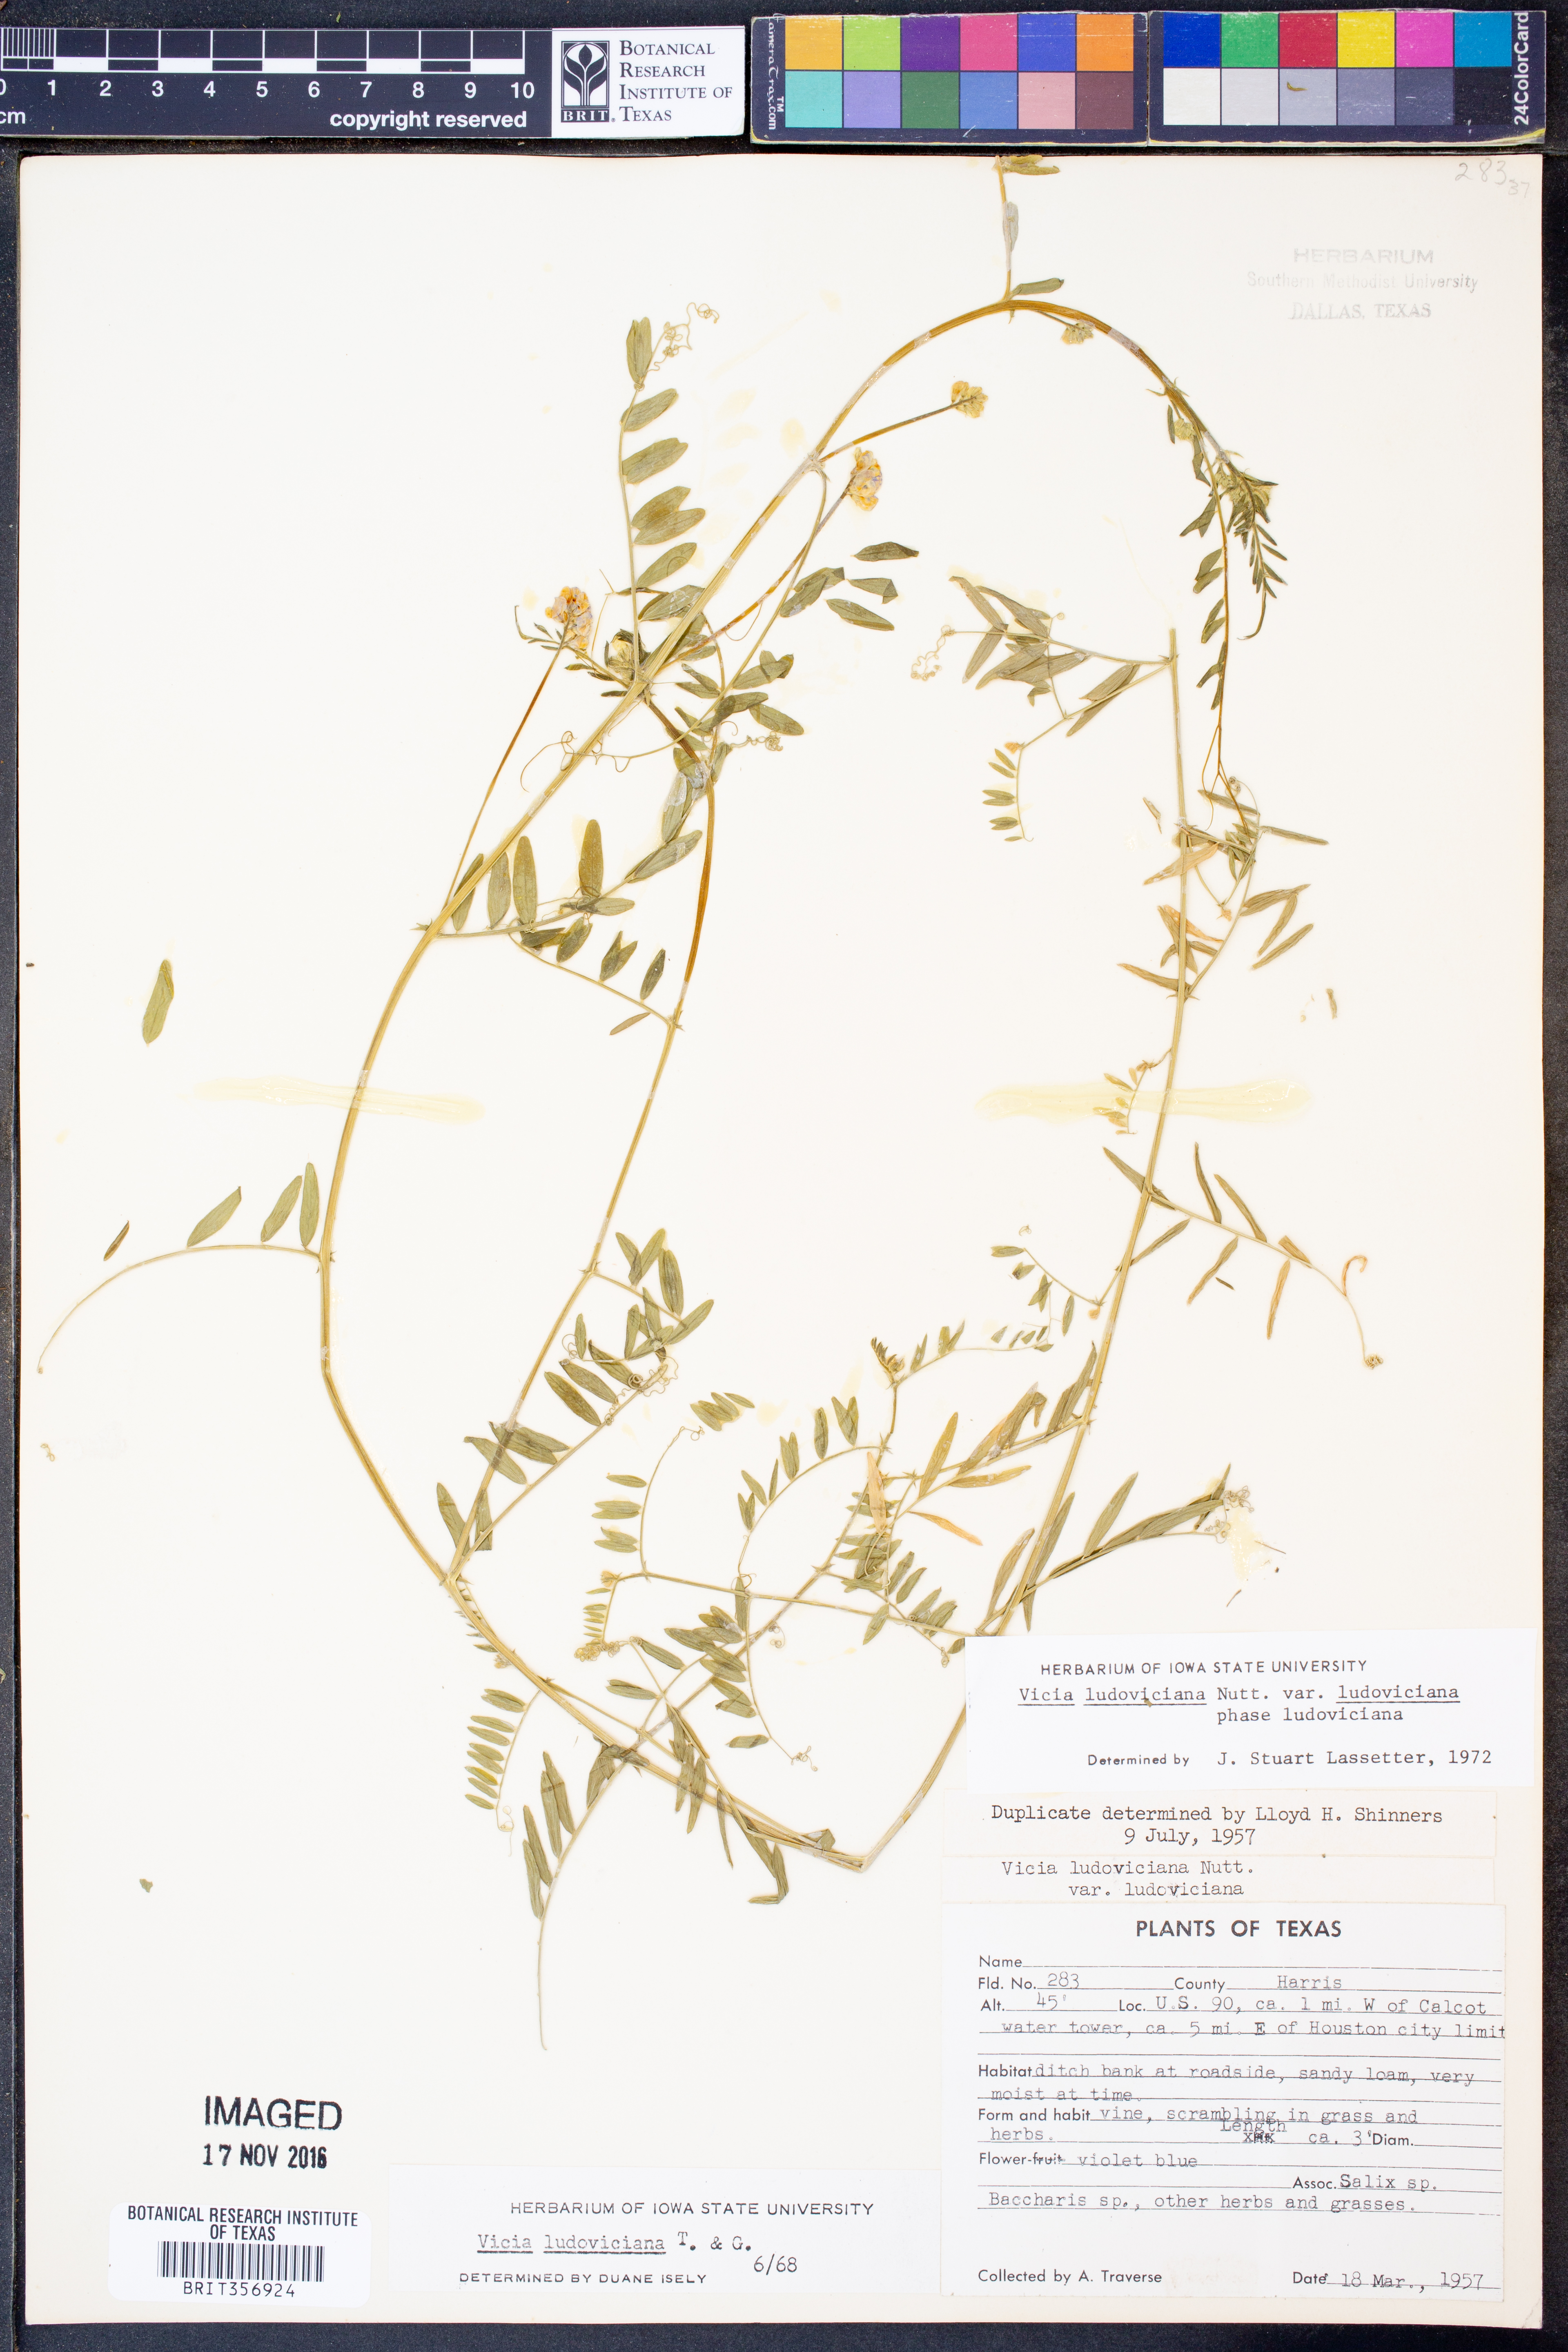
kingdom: Plantae
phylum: Tracheophyta
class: Magnoliopsida
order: Fabales
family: Fabaceae
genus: Vicia
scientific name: Vicia ludoviciana
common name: Louisiana vetch
